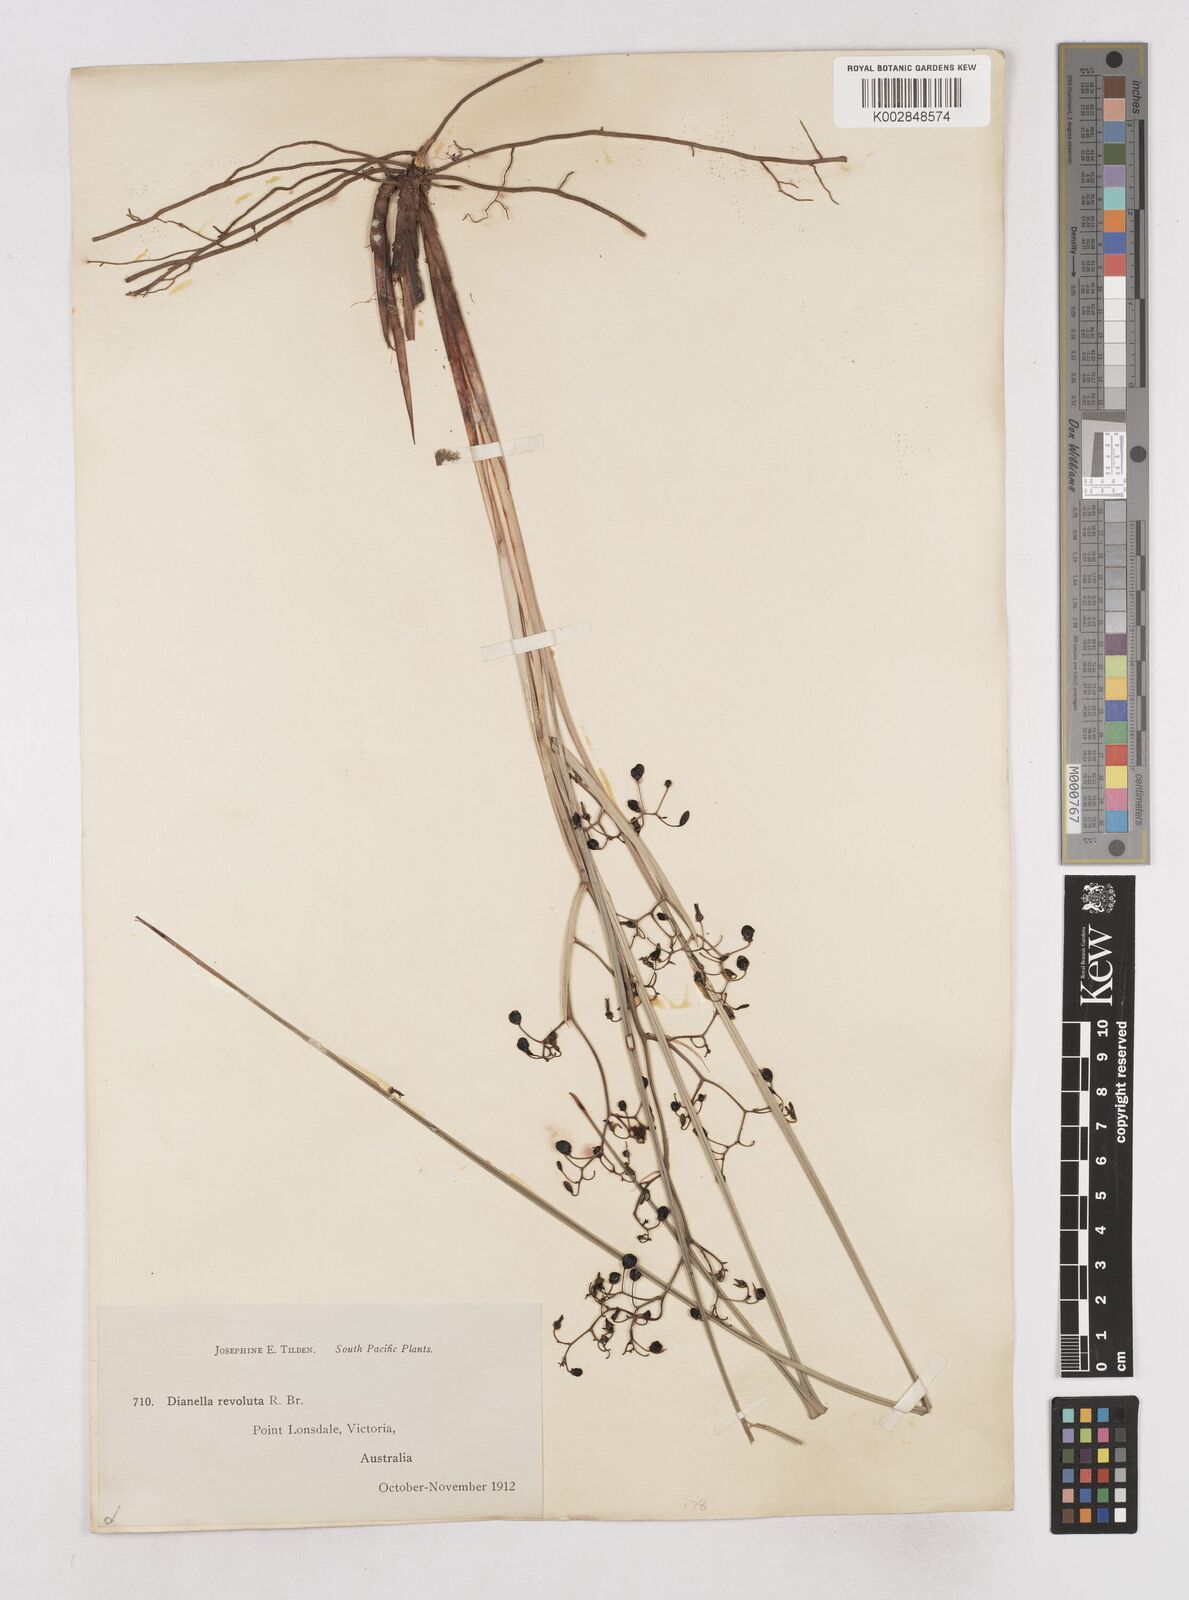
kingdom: Plantae
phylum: Tracheophyta
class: Liliopsida
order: Asparagales
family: Asphodelaceae
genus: Dianella
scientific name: Dianella revoluta
